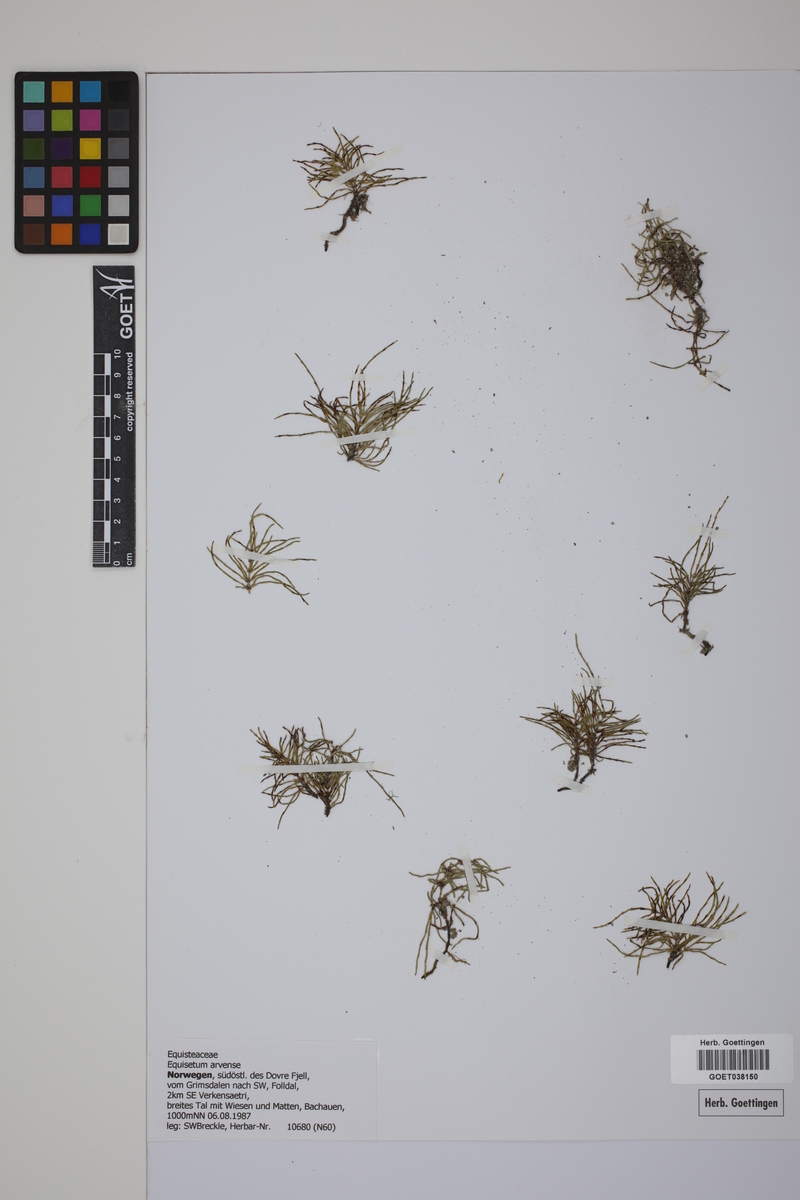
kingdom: Plantae
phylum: Tracheophyta
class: Polypodiopsida
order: Equisetales
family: Equisetaceae
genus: Equisetum
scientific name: Equisetum arvense
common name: Field horsetail
